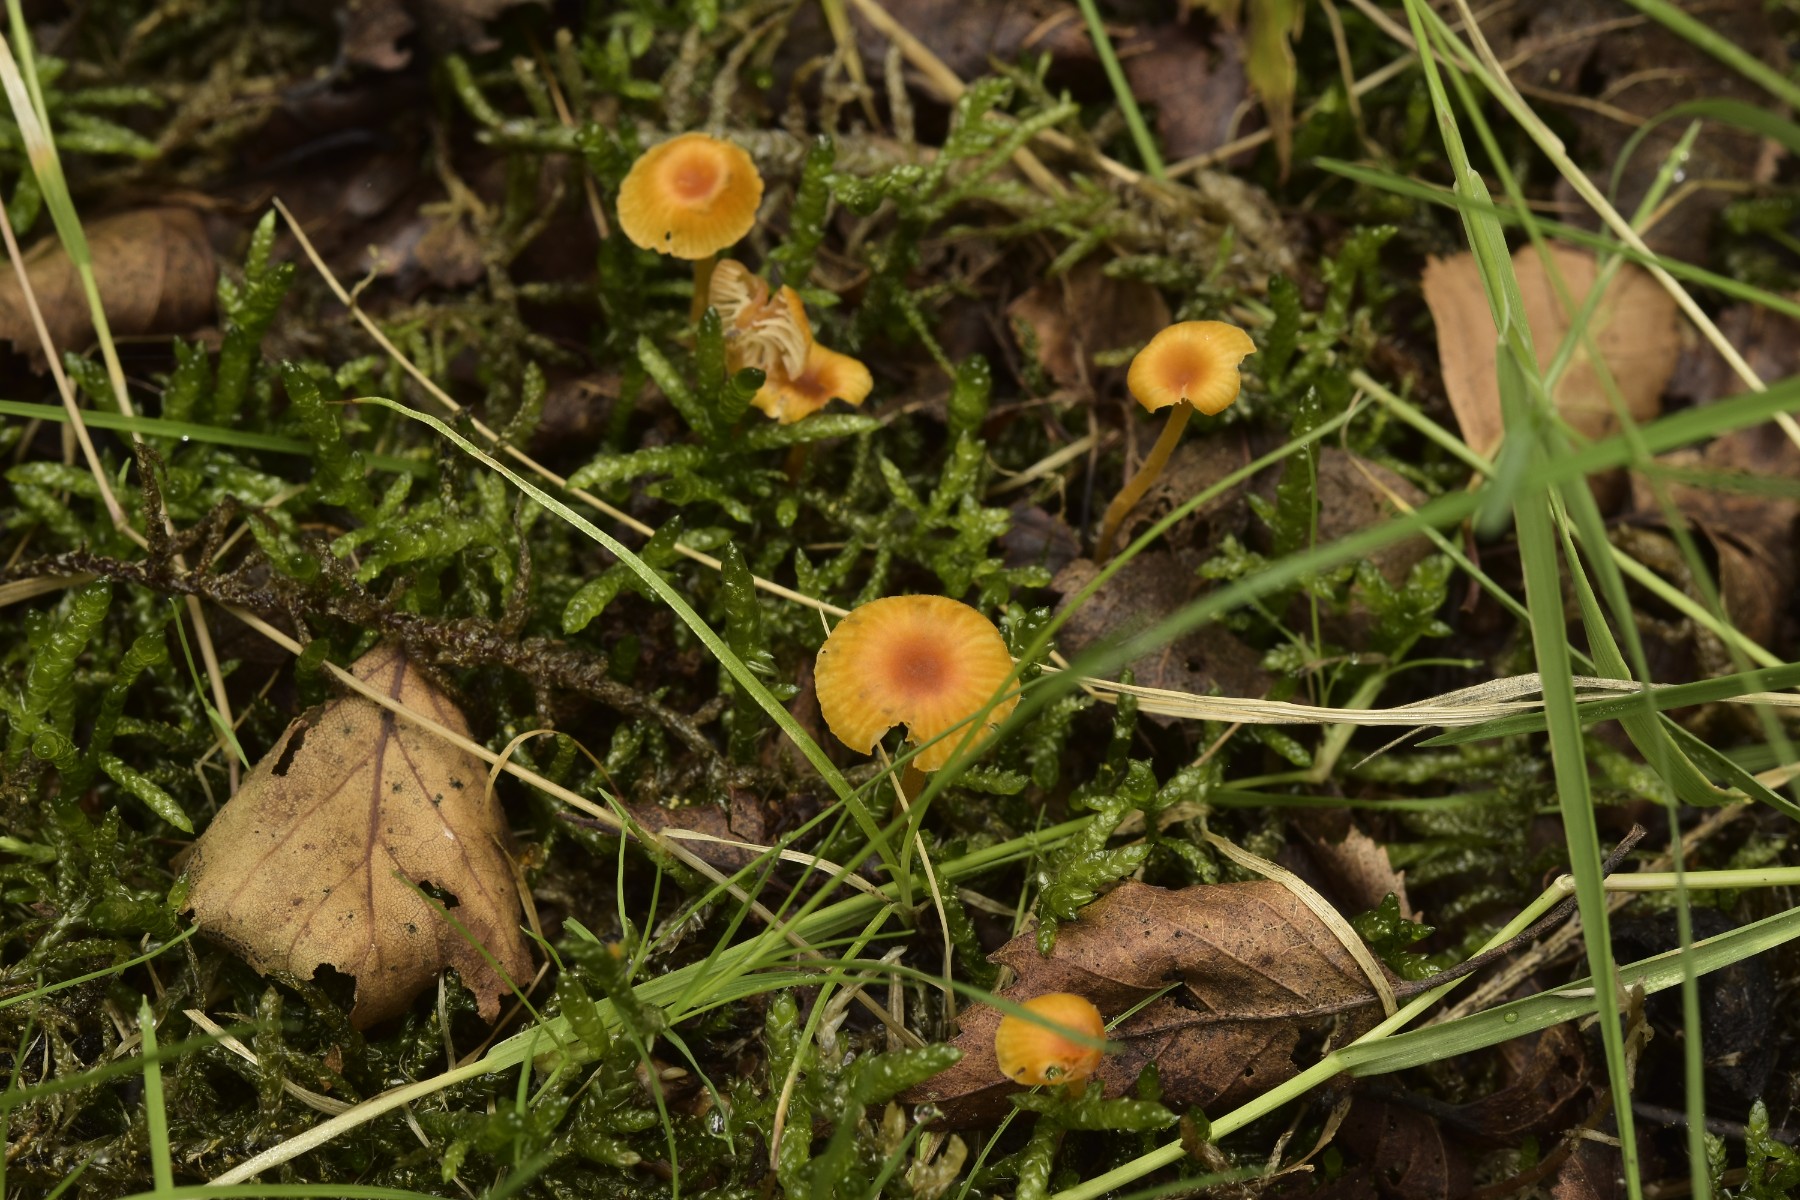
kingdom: Fungi
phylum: Basidiomycota
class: Agaricomycetes
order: Hymenochaetales
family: Rickenellaceae
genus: Rickenella
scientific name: Rickenella fibula
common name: orange mosnavlehat
